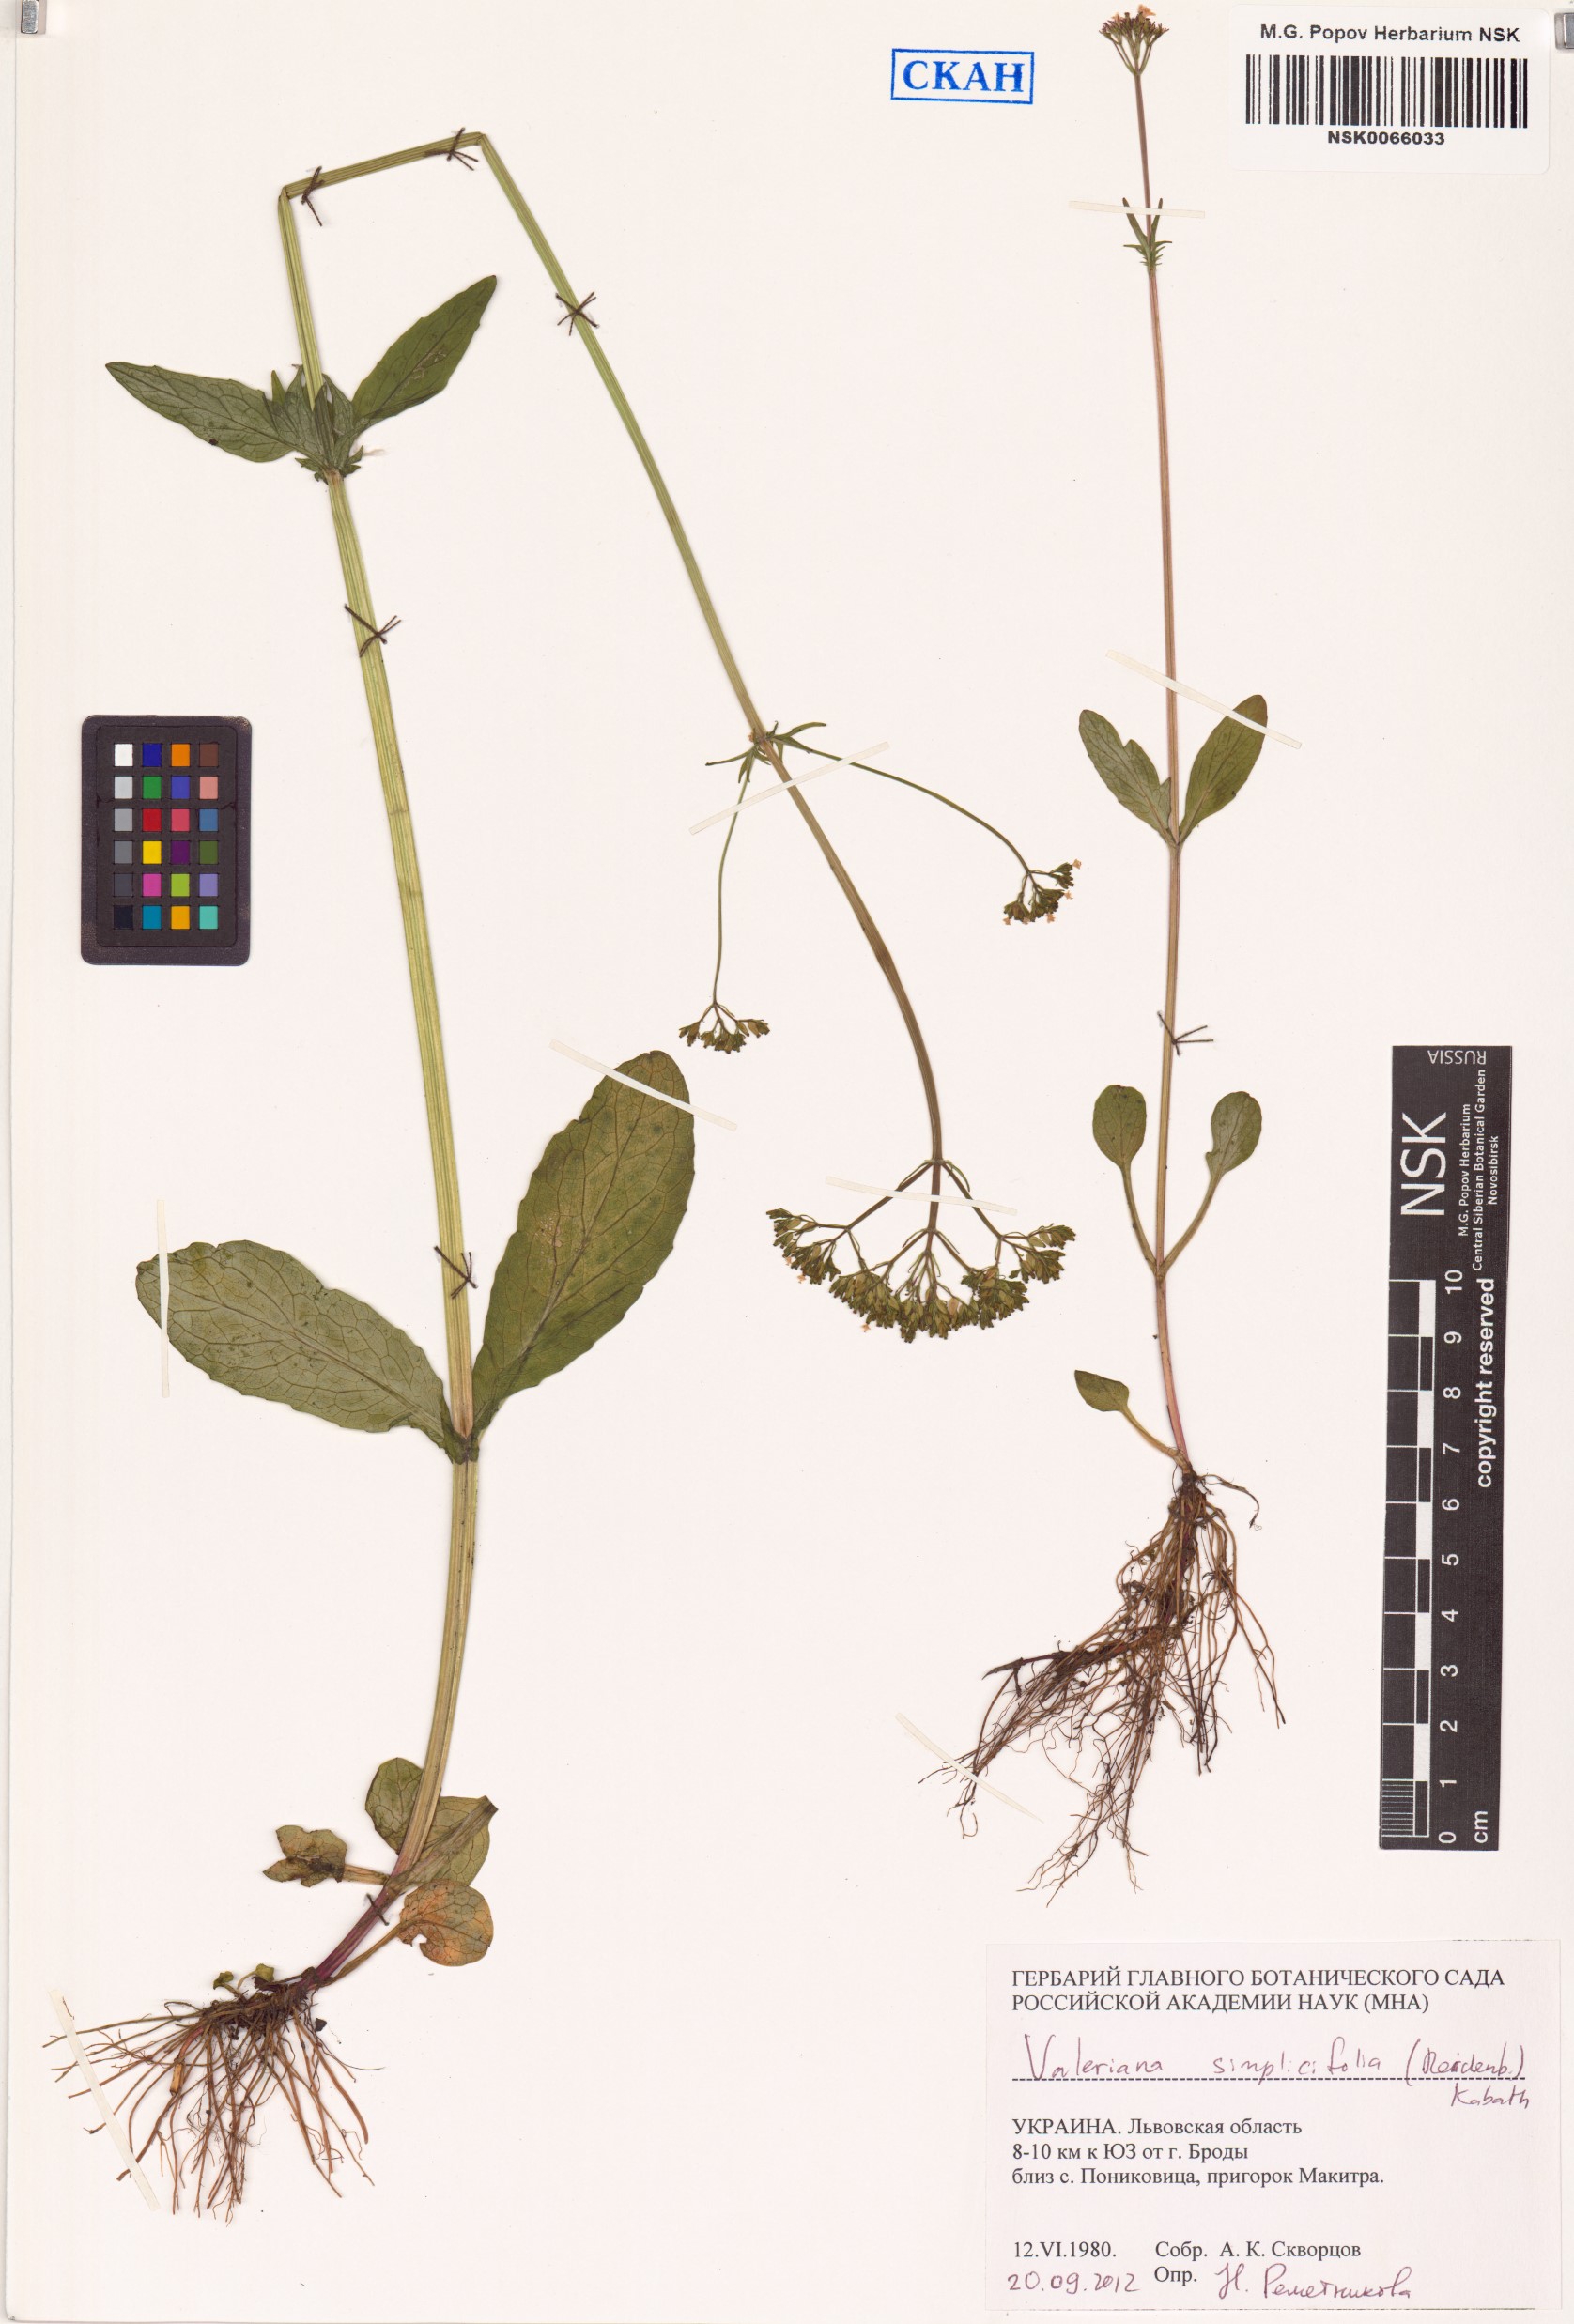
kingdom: Plantae
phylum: Tracheophyta
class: Magnoliopsida
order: Dipsacales
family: Caprifoliaceae
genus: Valeriana
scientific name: Valeriana dioica
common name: Marsh valerian
